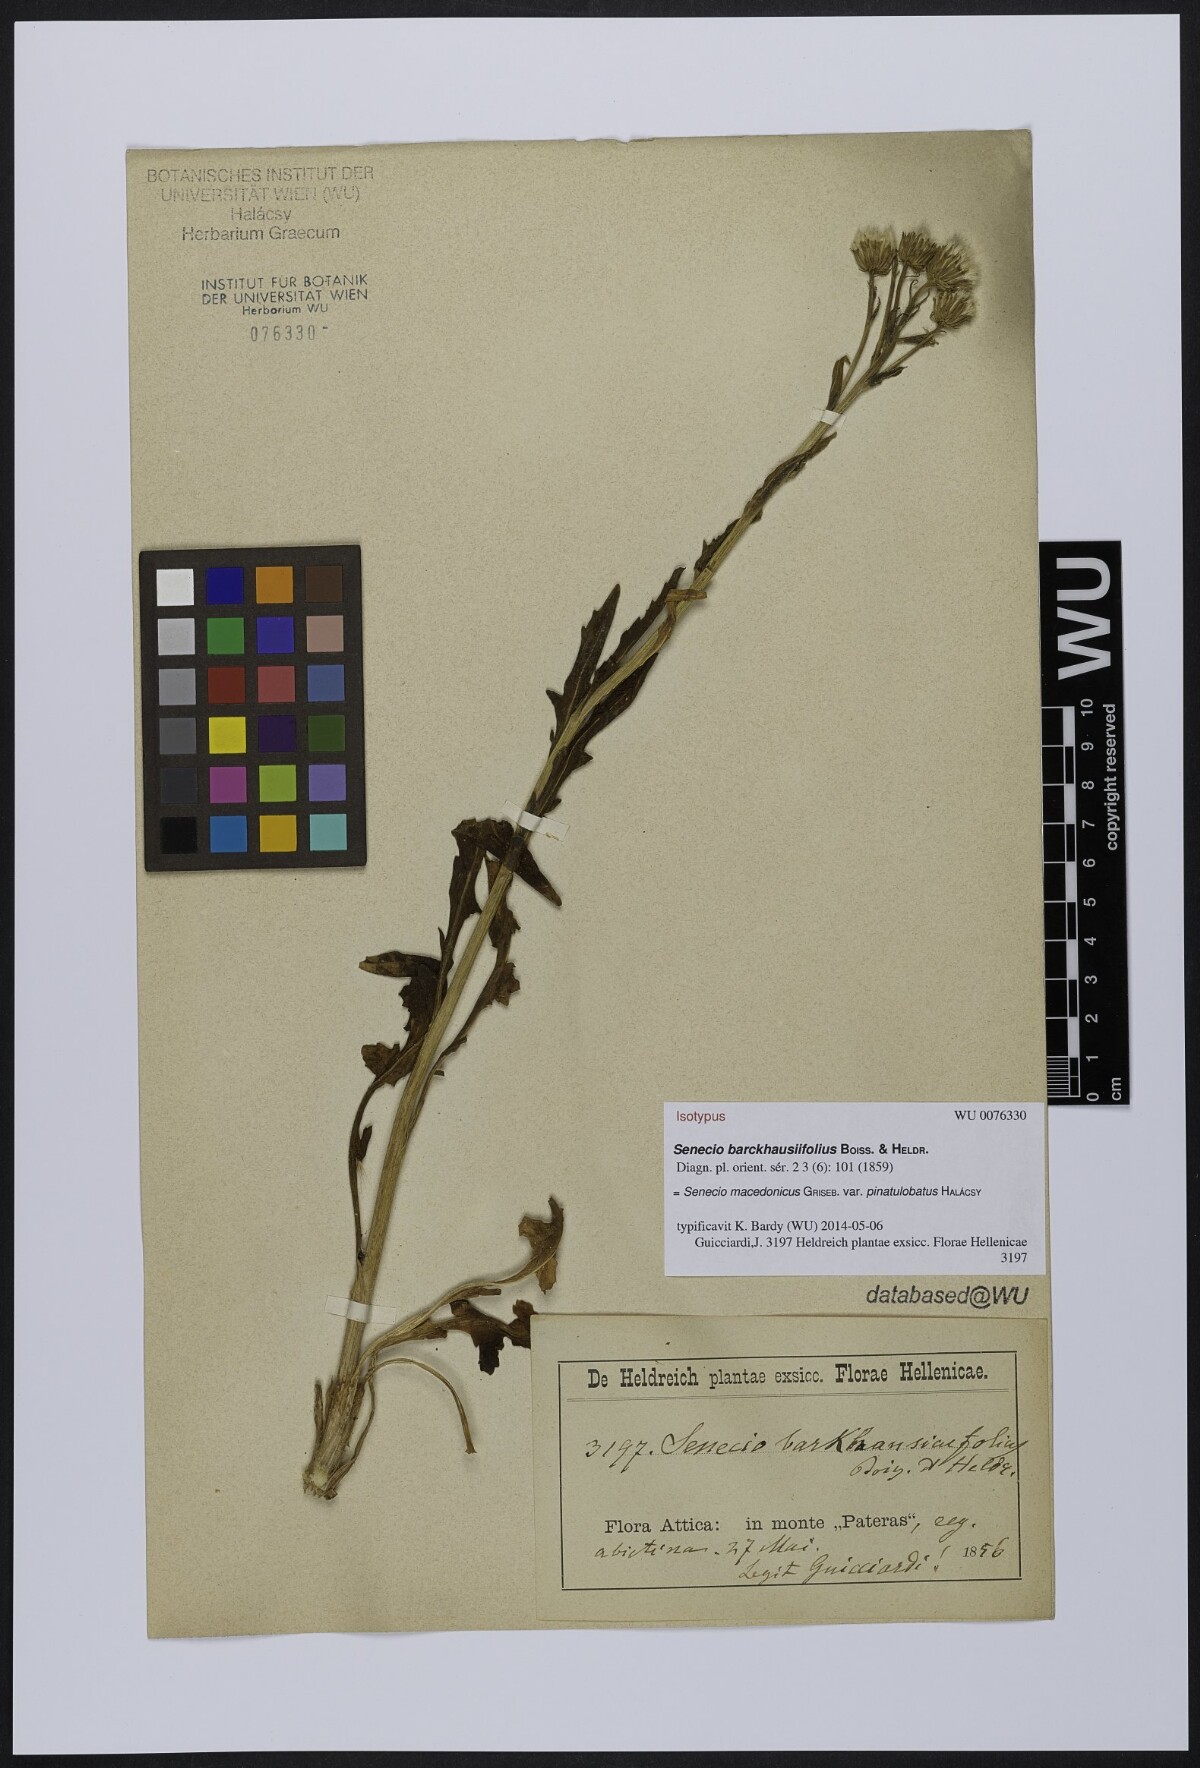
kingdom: Plantae
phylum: Tracheophyta
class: Magnoliopsida
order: Asterales
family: Asteraceae
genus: Senecio
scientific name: Senecio macedonicus
